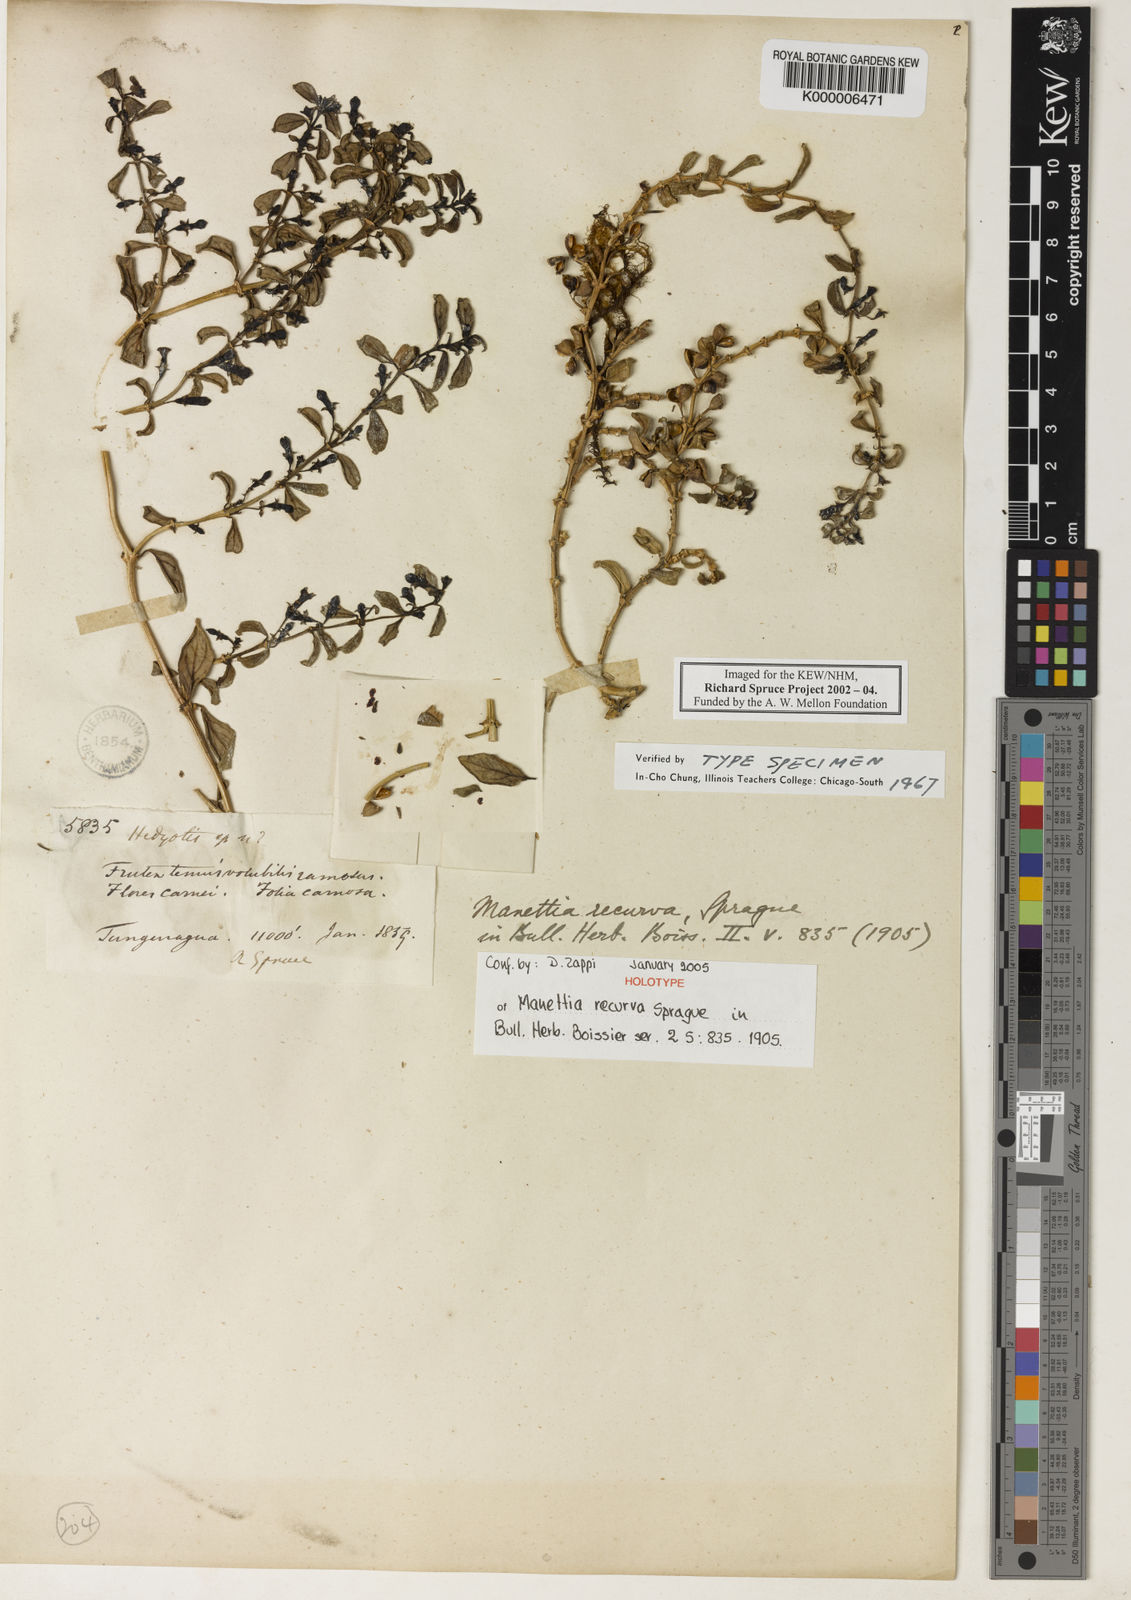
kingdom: Plantae
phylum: Tracheophyta
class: Magnoliopsida
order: Gentianales
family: Rubiaceae
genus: Manettia
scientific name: Manettia recurva
